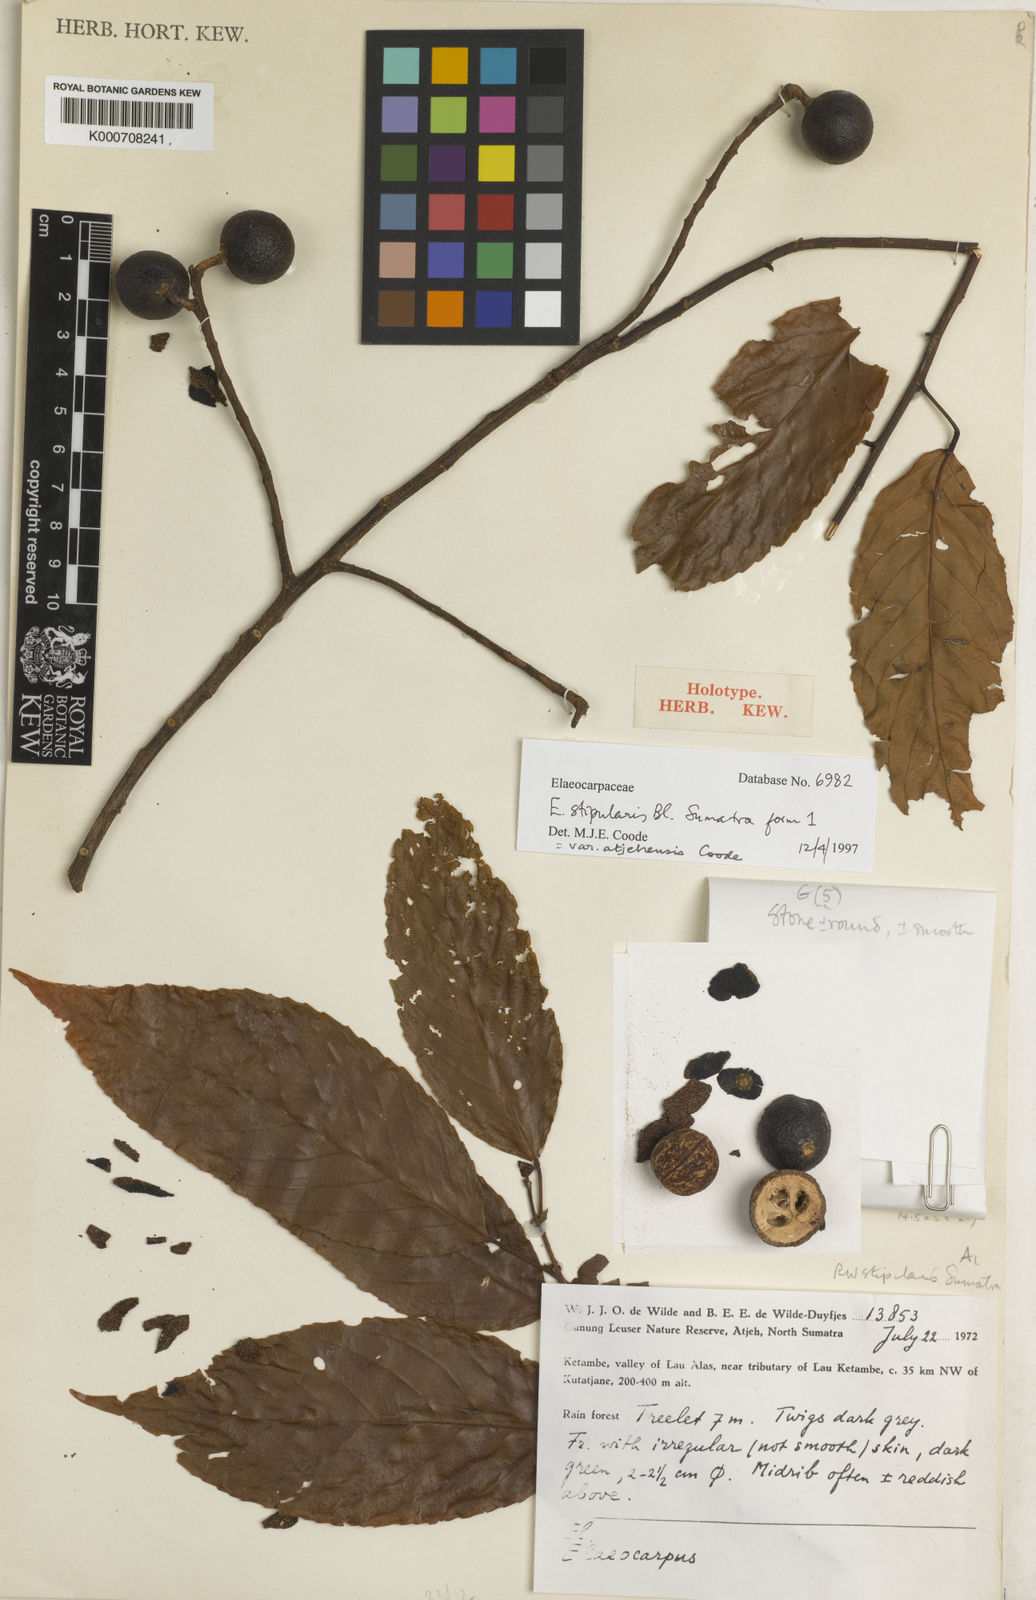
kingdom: Plantae
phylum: Tracheophyta
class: Magnoliopsida
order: Oxalidales
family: Elaeocarpaceae
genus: Elaeocarpus
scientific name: Elaeocarpus stipularis
